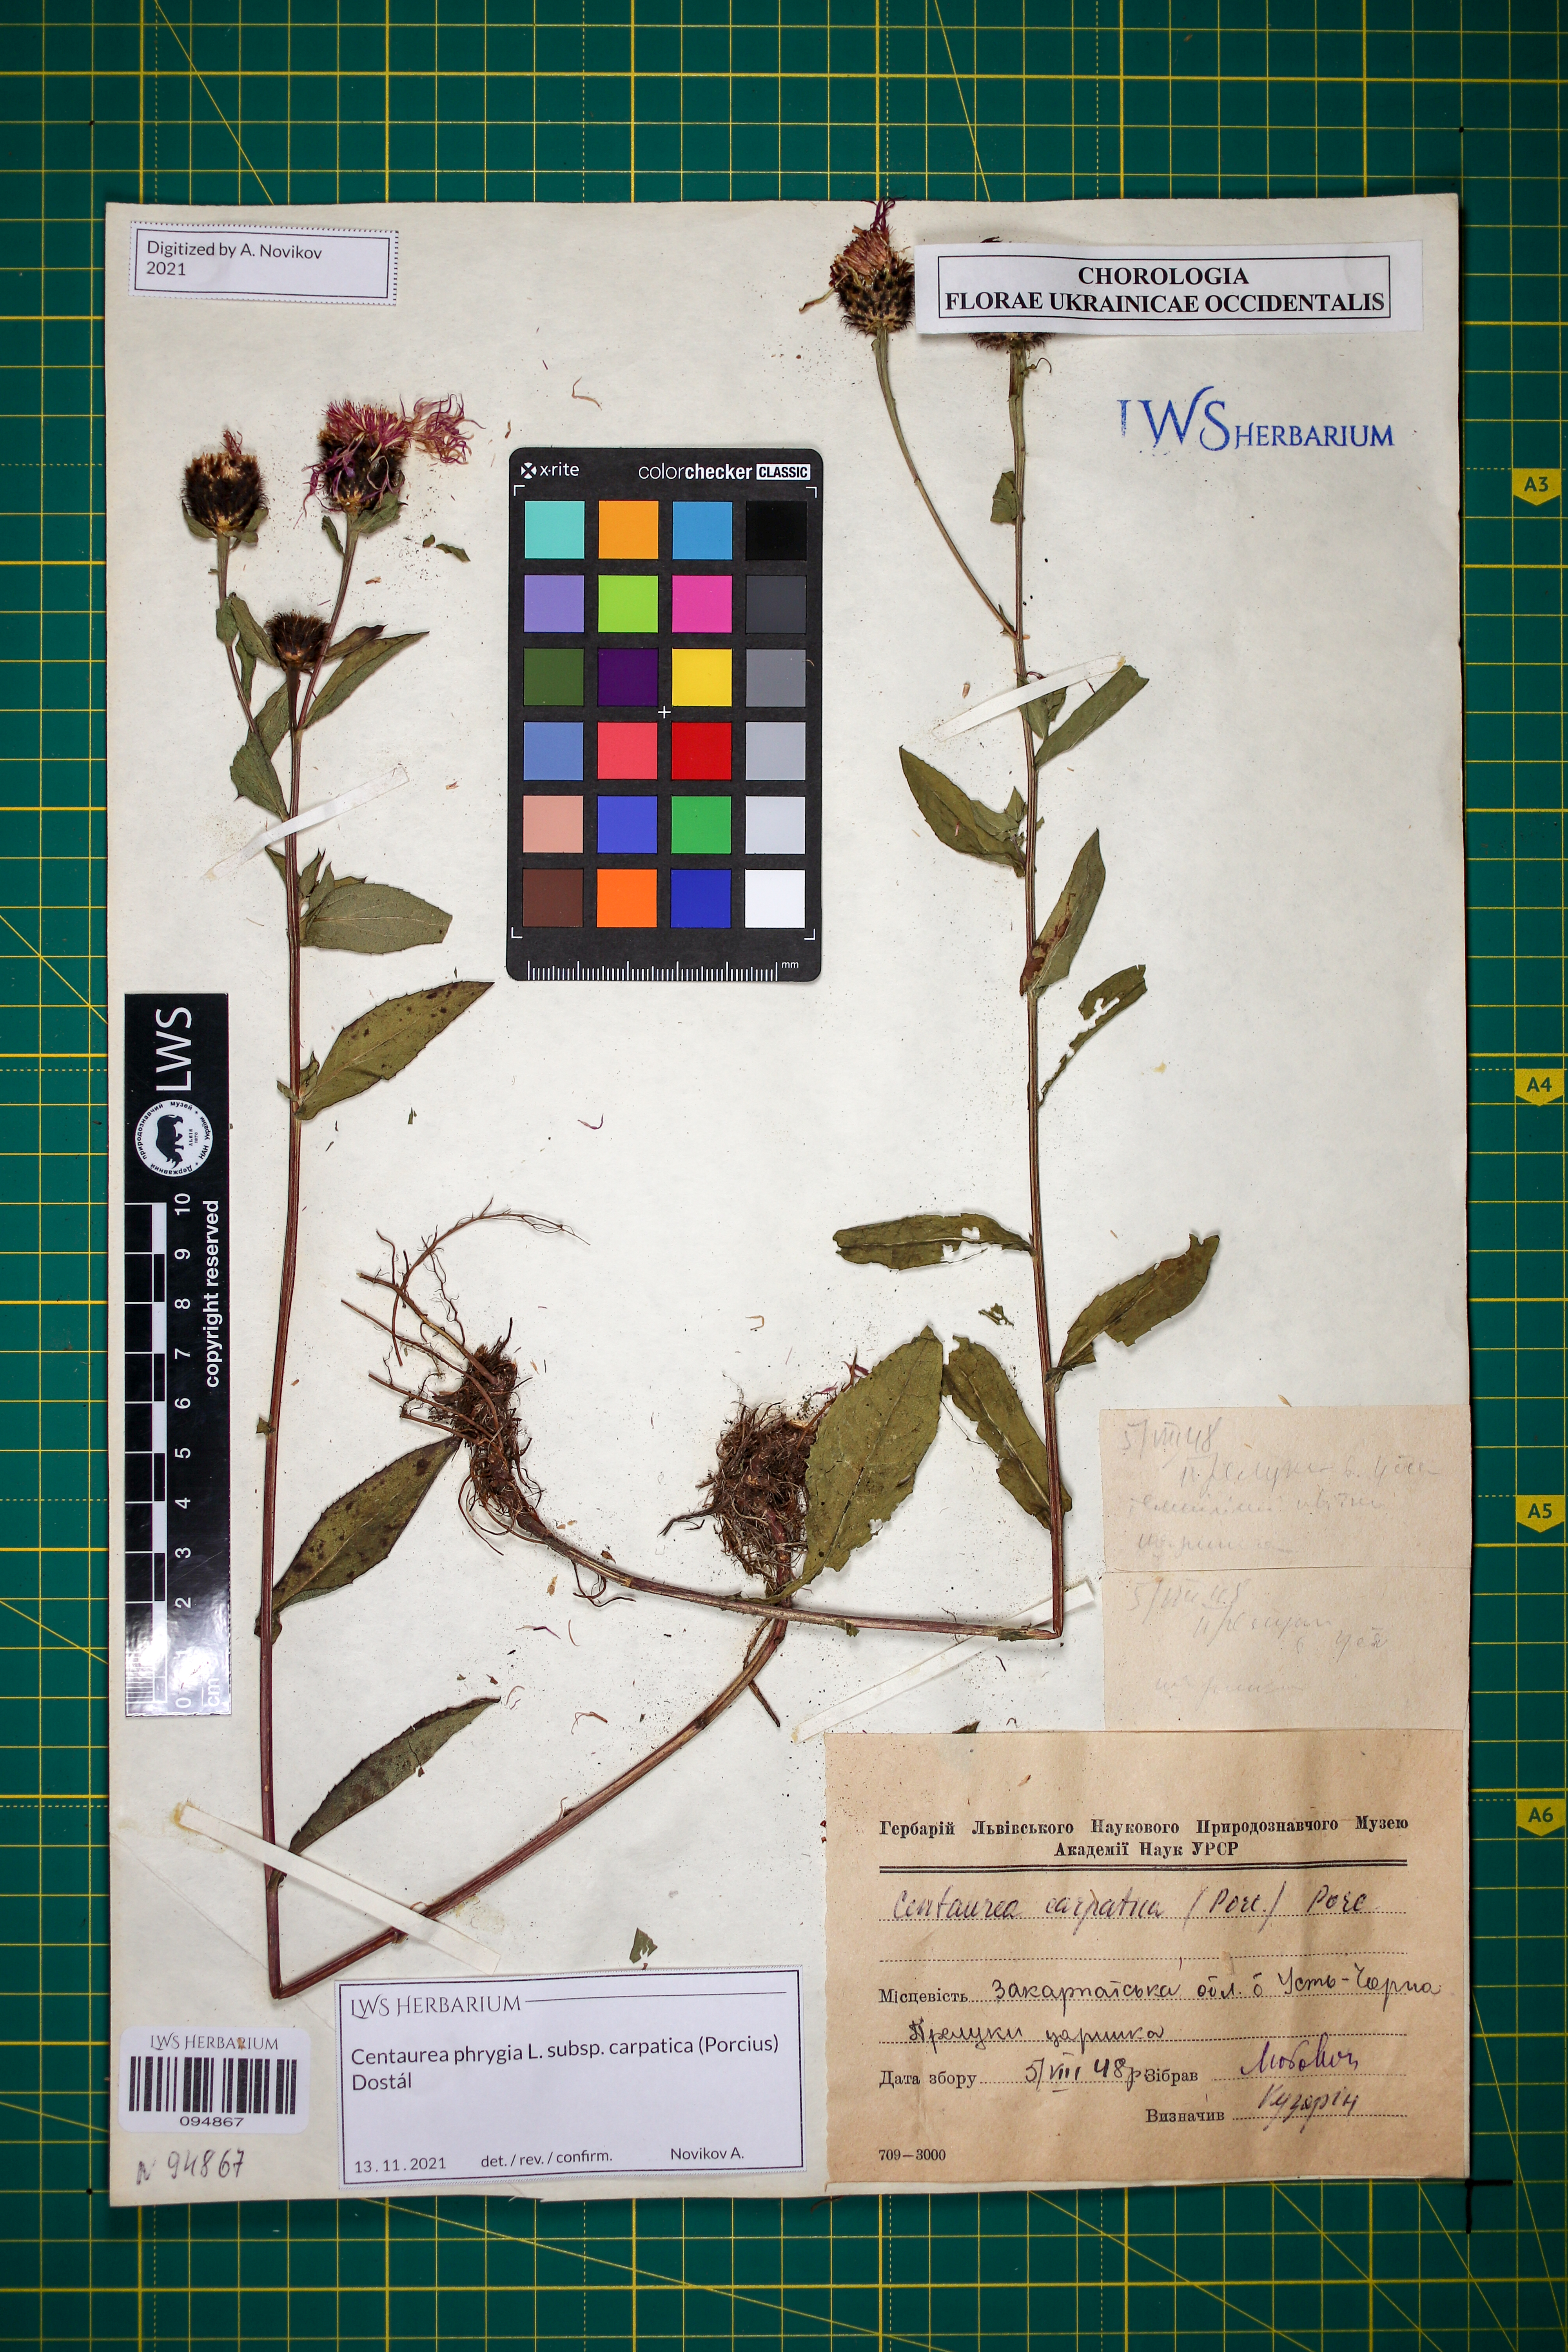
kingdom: Plantae
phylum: Tracheophyta
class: Magnoliopsida
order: Asterales
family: Asteraceae
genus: Centaurea
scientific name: Centaurea phrygia
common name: Wig knapweed
